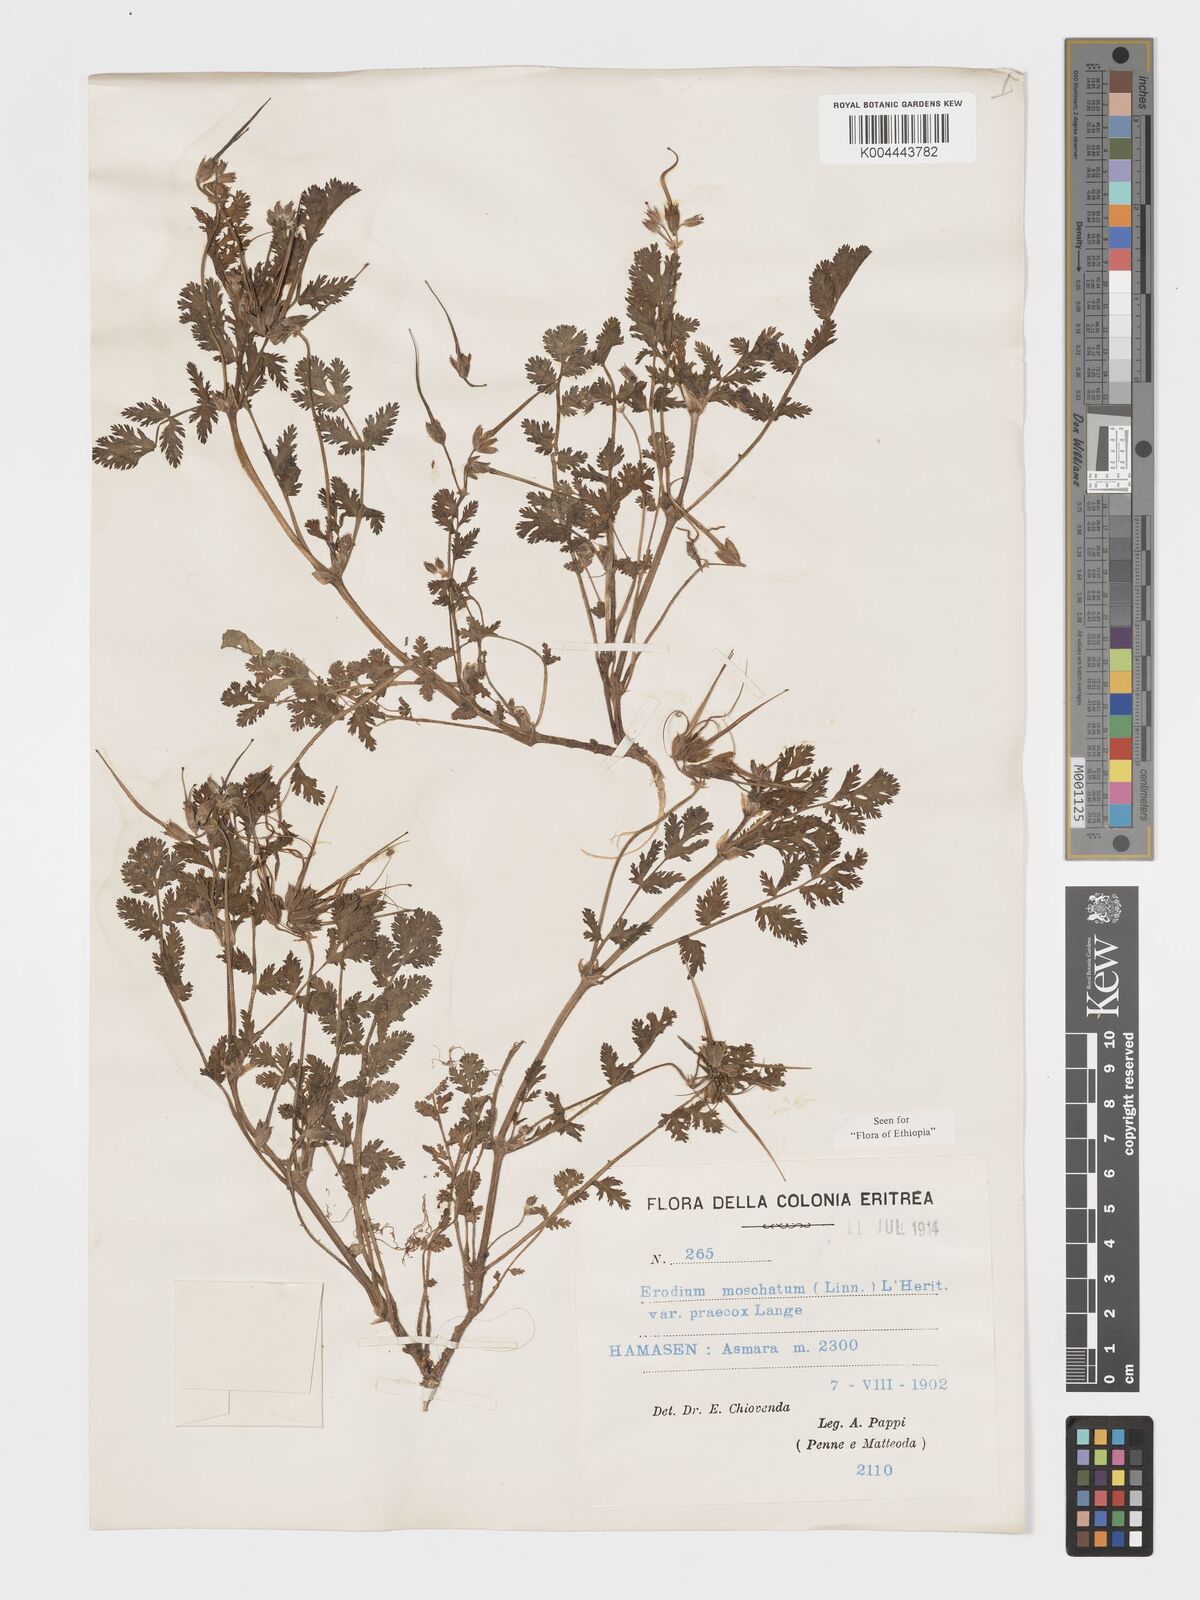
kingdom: Plantae
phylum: Tracheophyta
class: Magnoliopsida
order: Geraniales
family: Geraniaceae
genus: Erodium
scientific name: Erodium moschatum
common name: Musk stork's-bill
